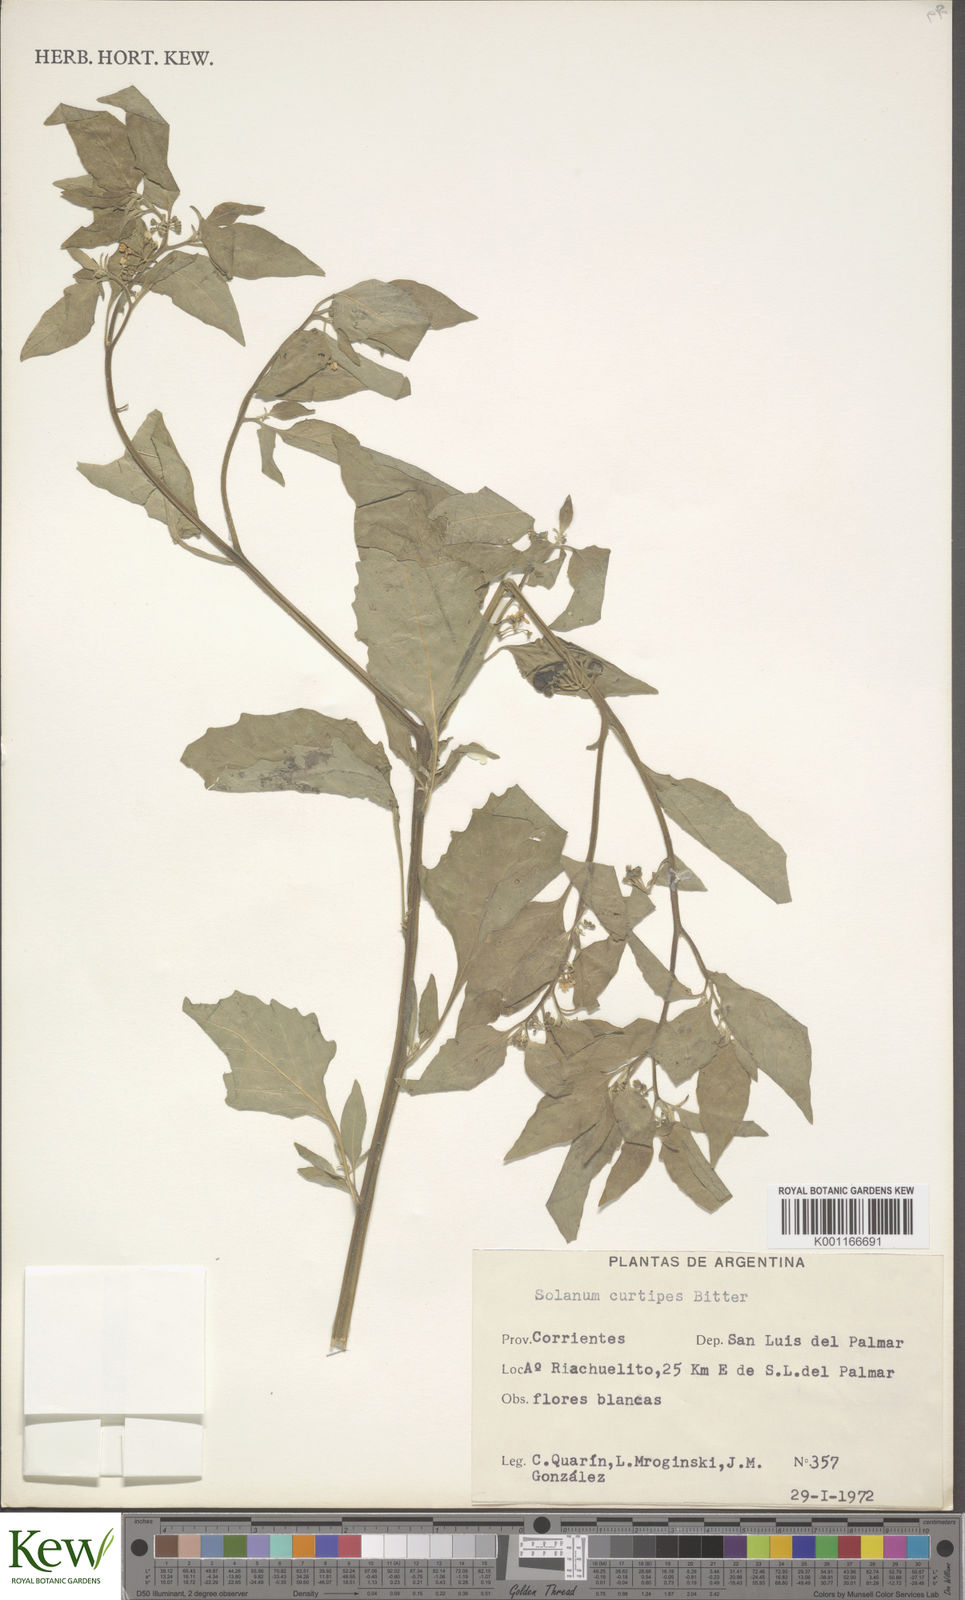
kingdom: Plantae
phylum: Tracheophyta
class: Magnoliopsida
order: Solanales
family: Solanaceae
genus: Solanum
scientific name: Solanum americanum
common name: American black nightshade
